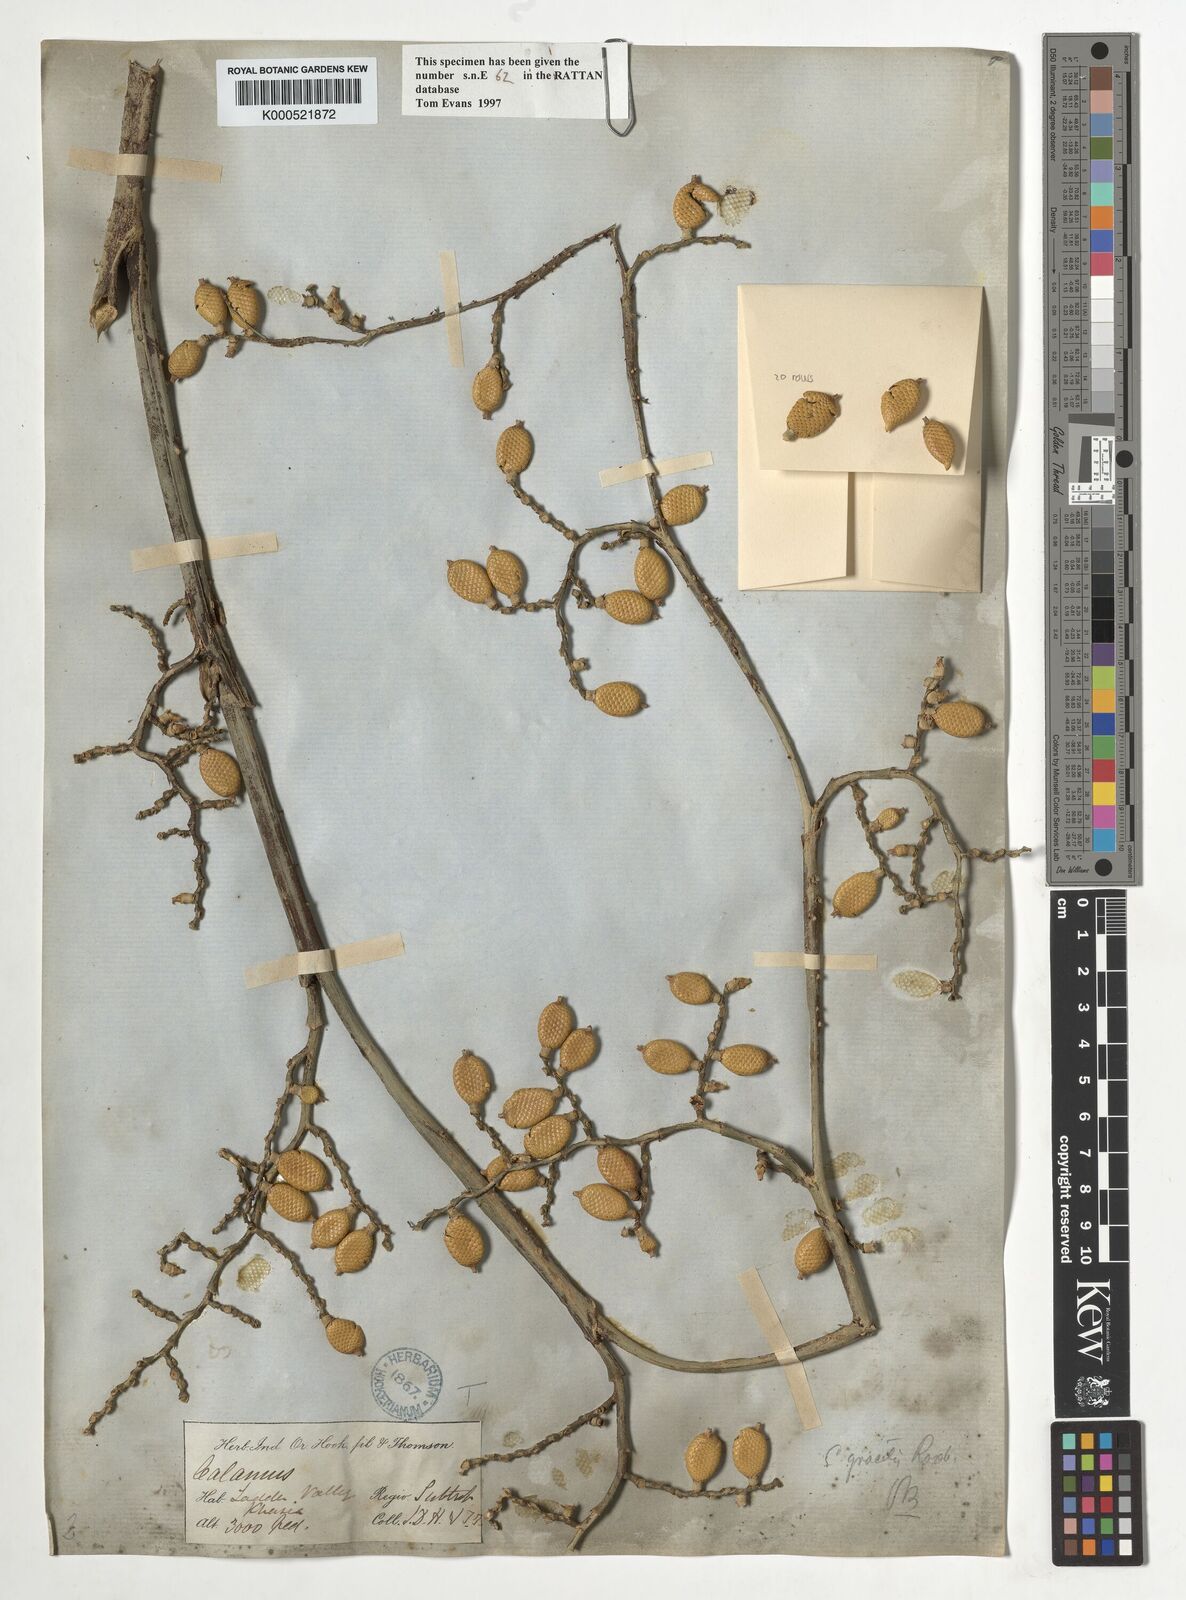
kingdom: Plantae
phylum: Tracheophyta
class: Liliopsida
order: Arecales
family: Arecaceae
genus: Calamus
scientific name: Calamus gracilis
